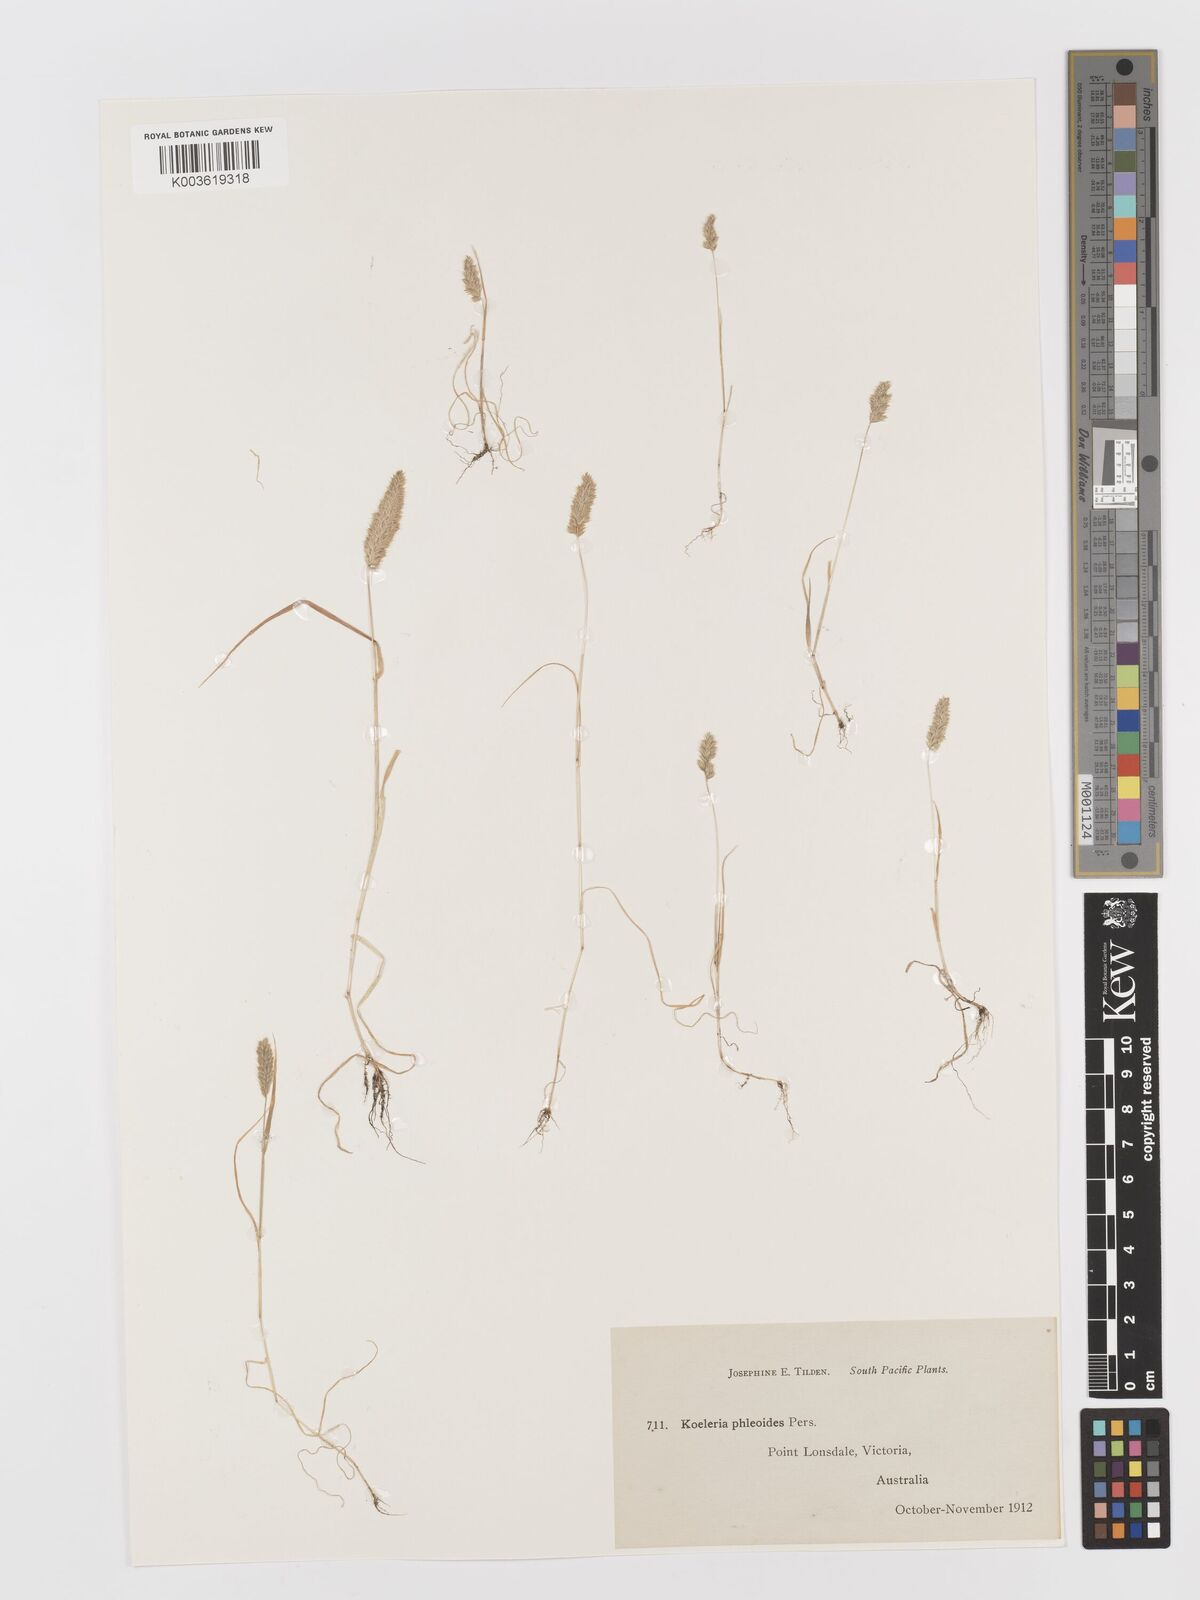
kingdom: Plantae
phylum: Tracheophyta
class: Liliopsida
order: Poales
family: Poaceae
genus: Rostraria
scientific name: Rostraria cristata
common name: Mediterranean hair-grass
